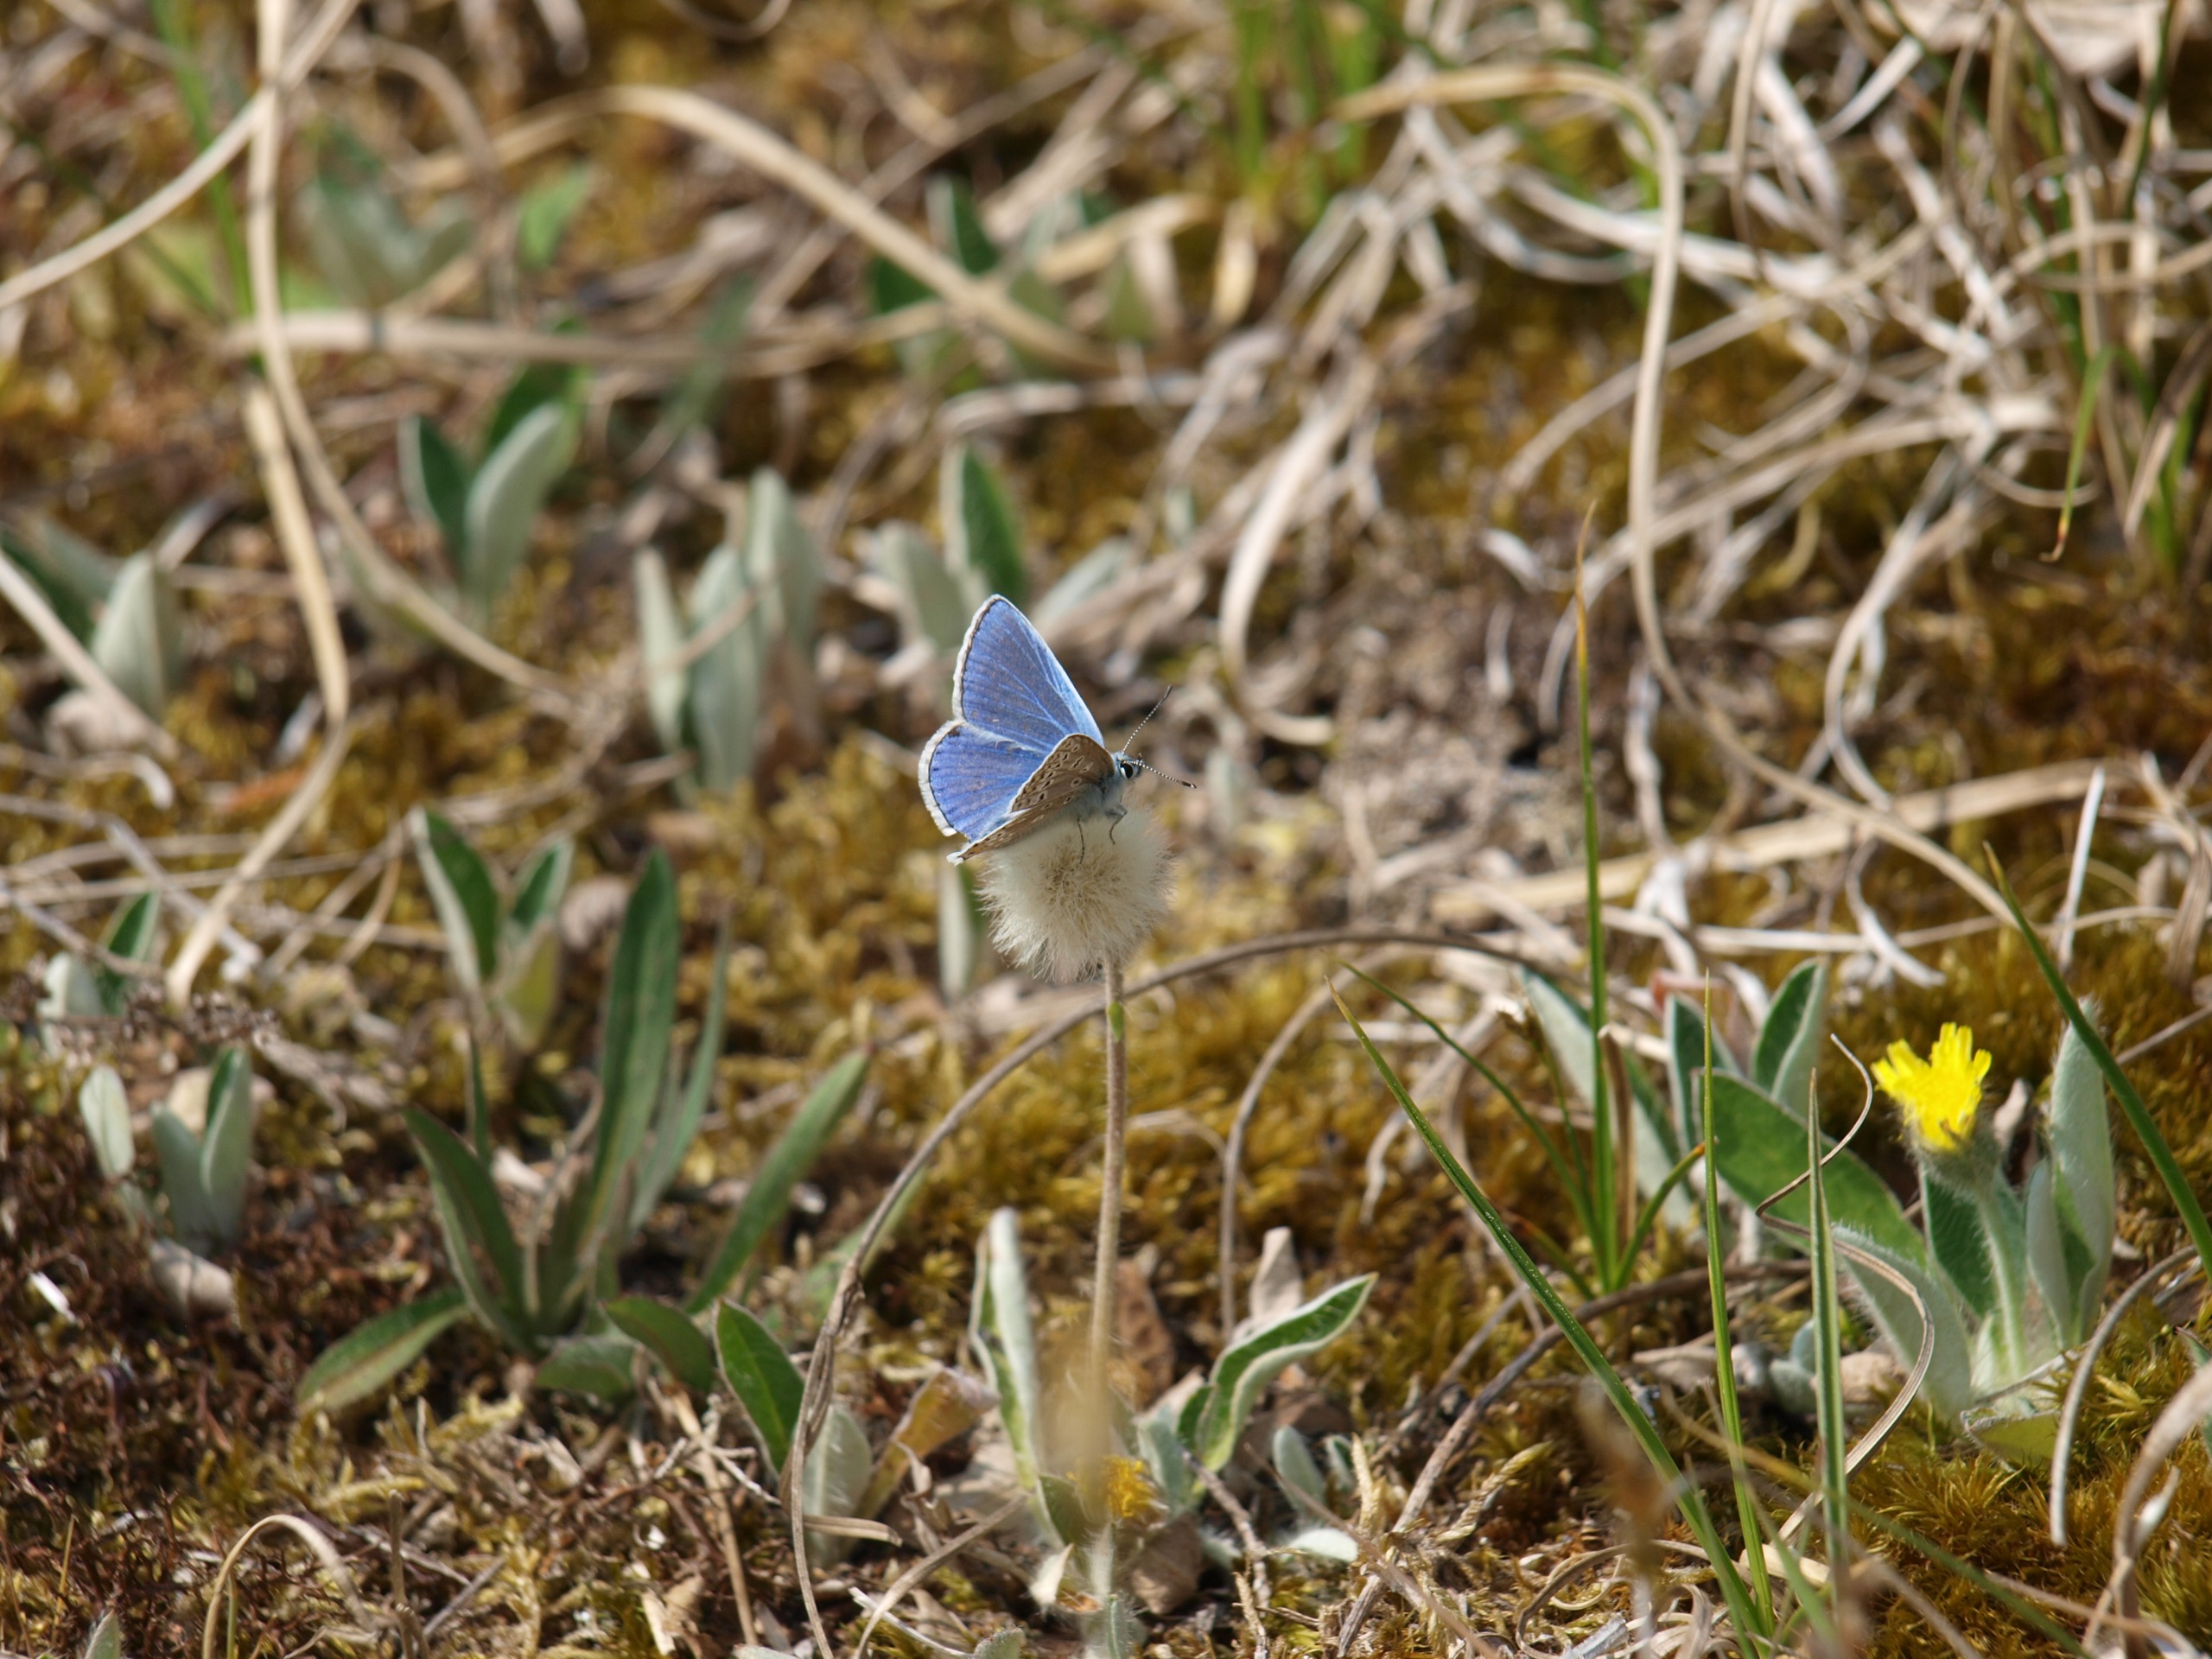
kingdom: Animalia
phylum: Arthropoda
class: Insecta
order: Lepidoptera
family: Lycaenidae
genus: Polyommatus
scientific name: Polyommatus icarus
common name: Almindelig blåfugl
